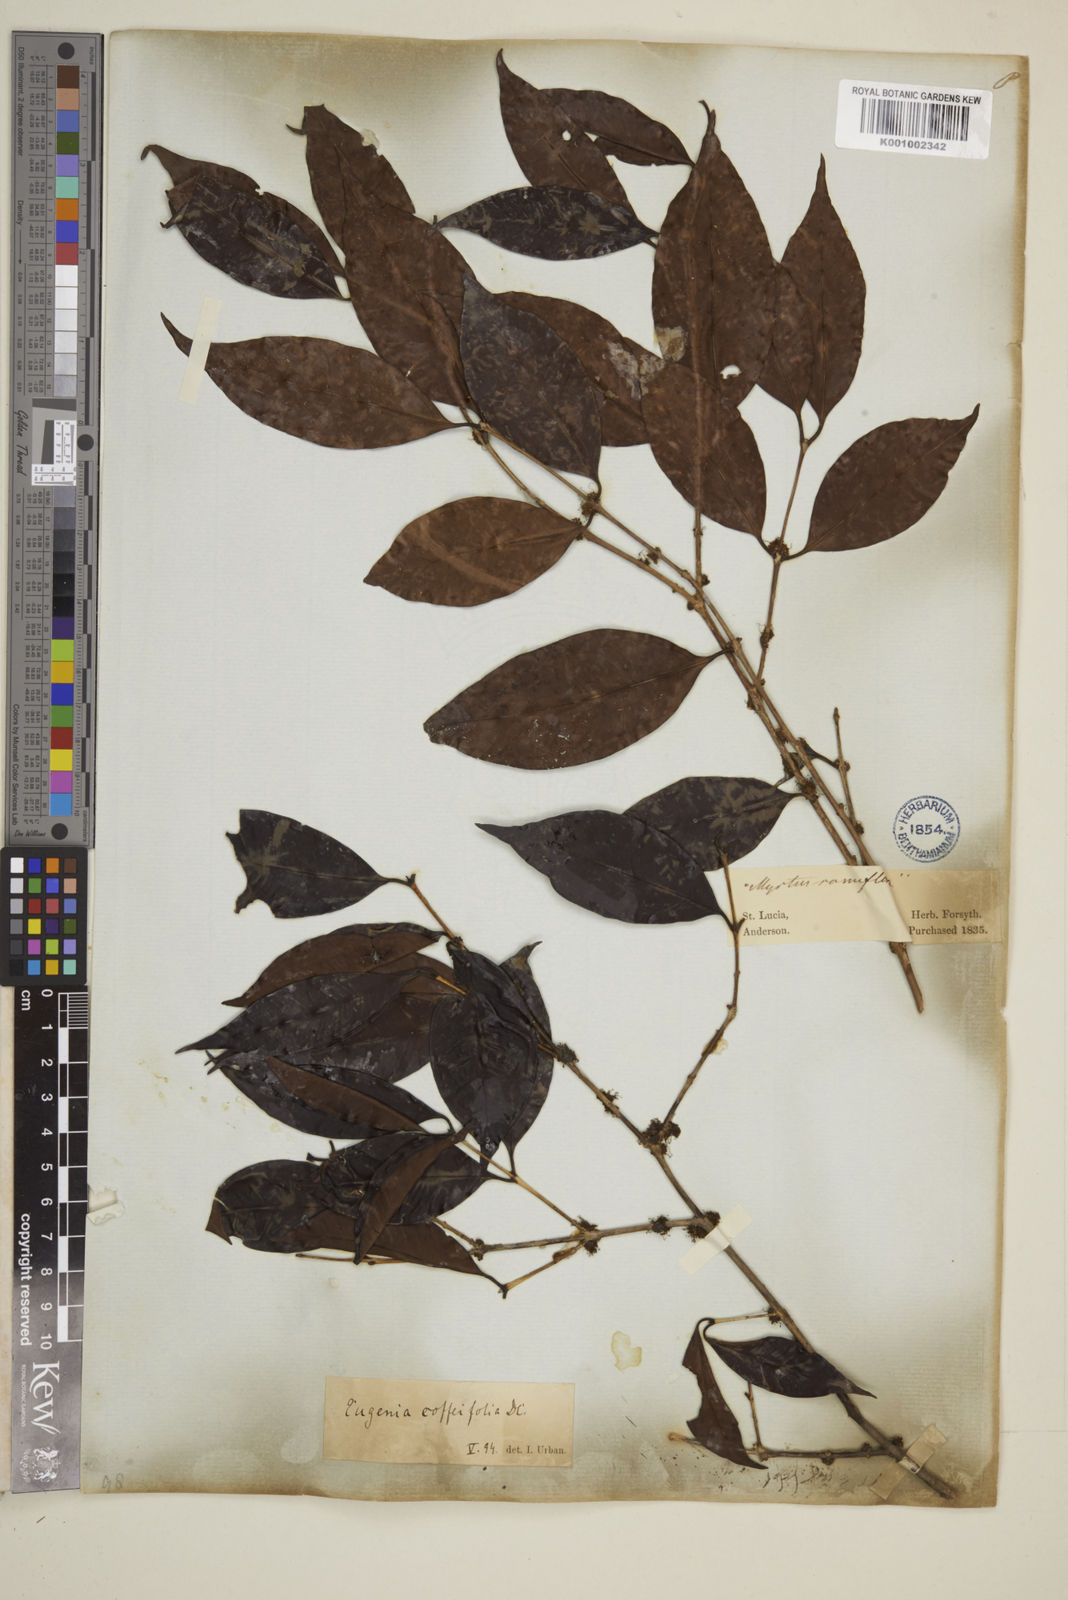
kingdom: Plantae
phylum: Tracheophyta
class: Magnoliopsida
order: Myrtales
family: Myrtaceae
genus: Eugenia
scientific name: Eugenia coffeifolia
